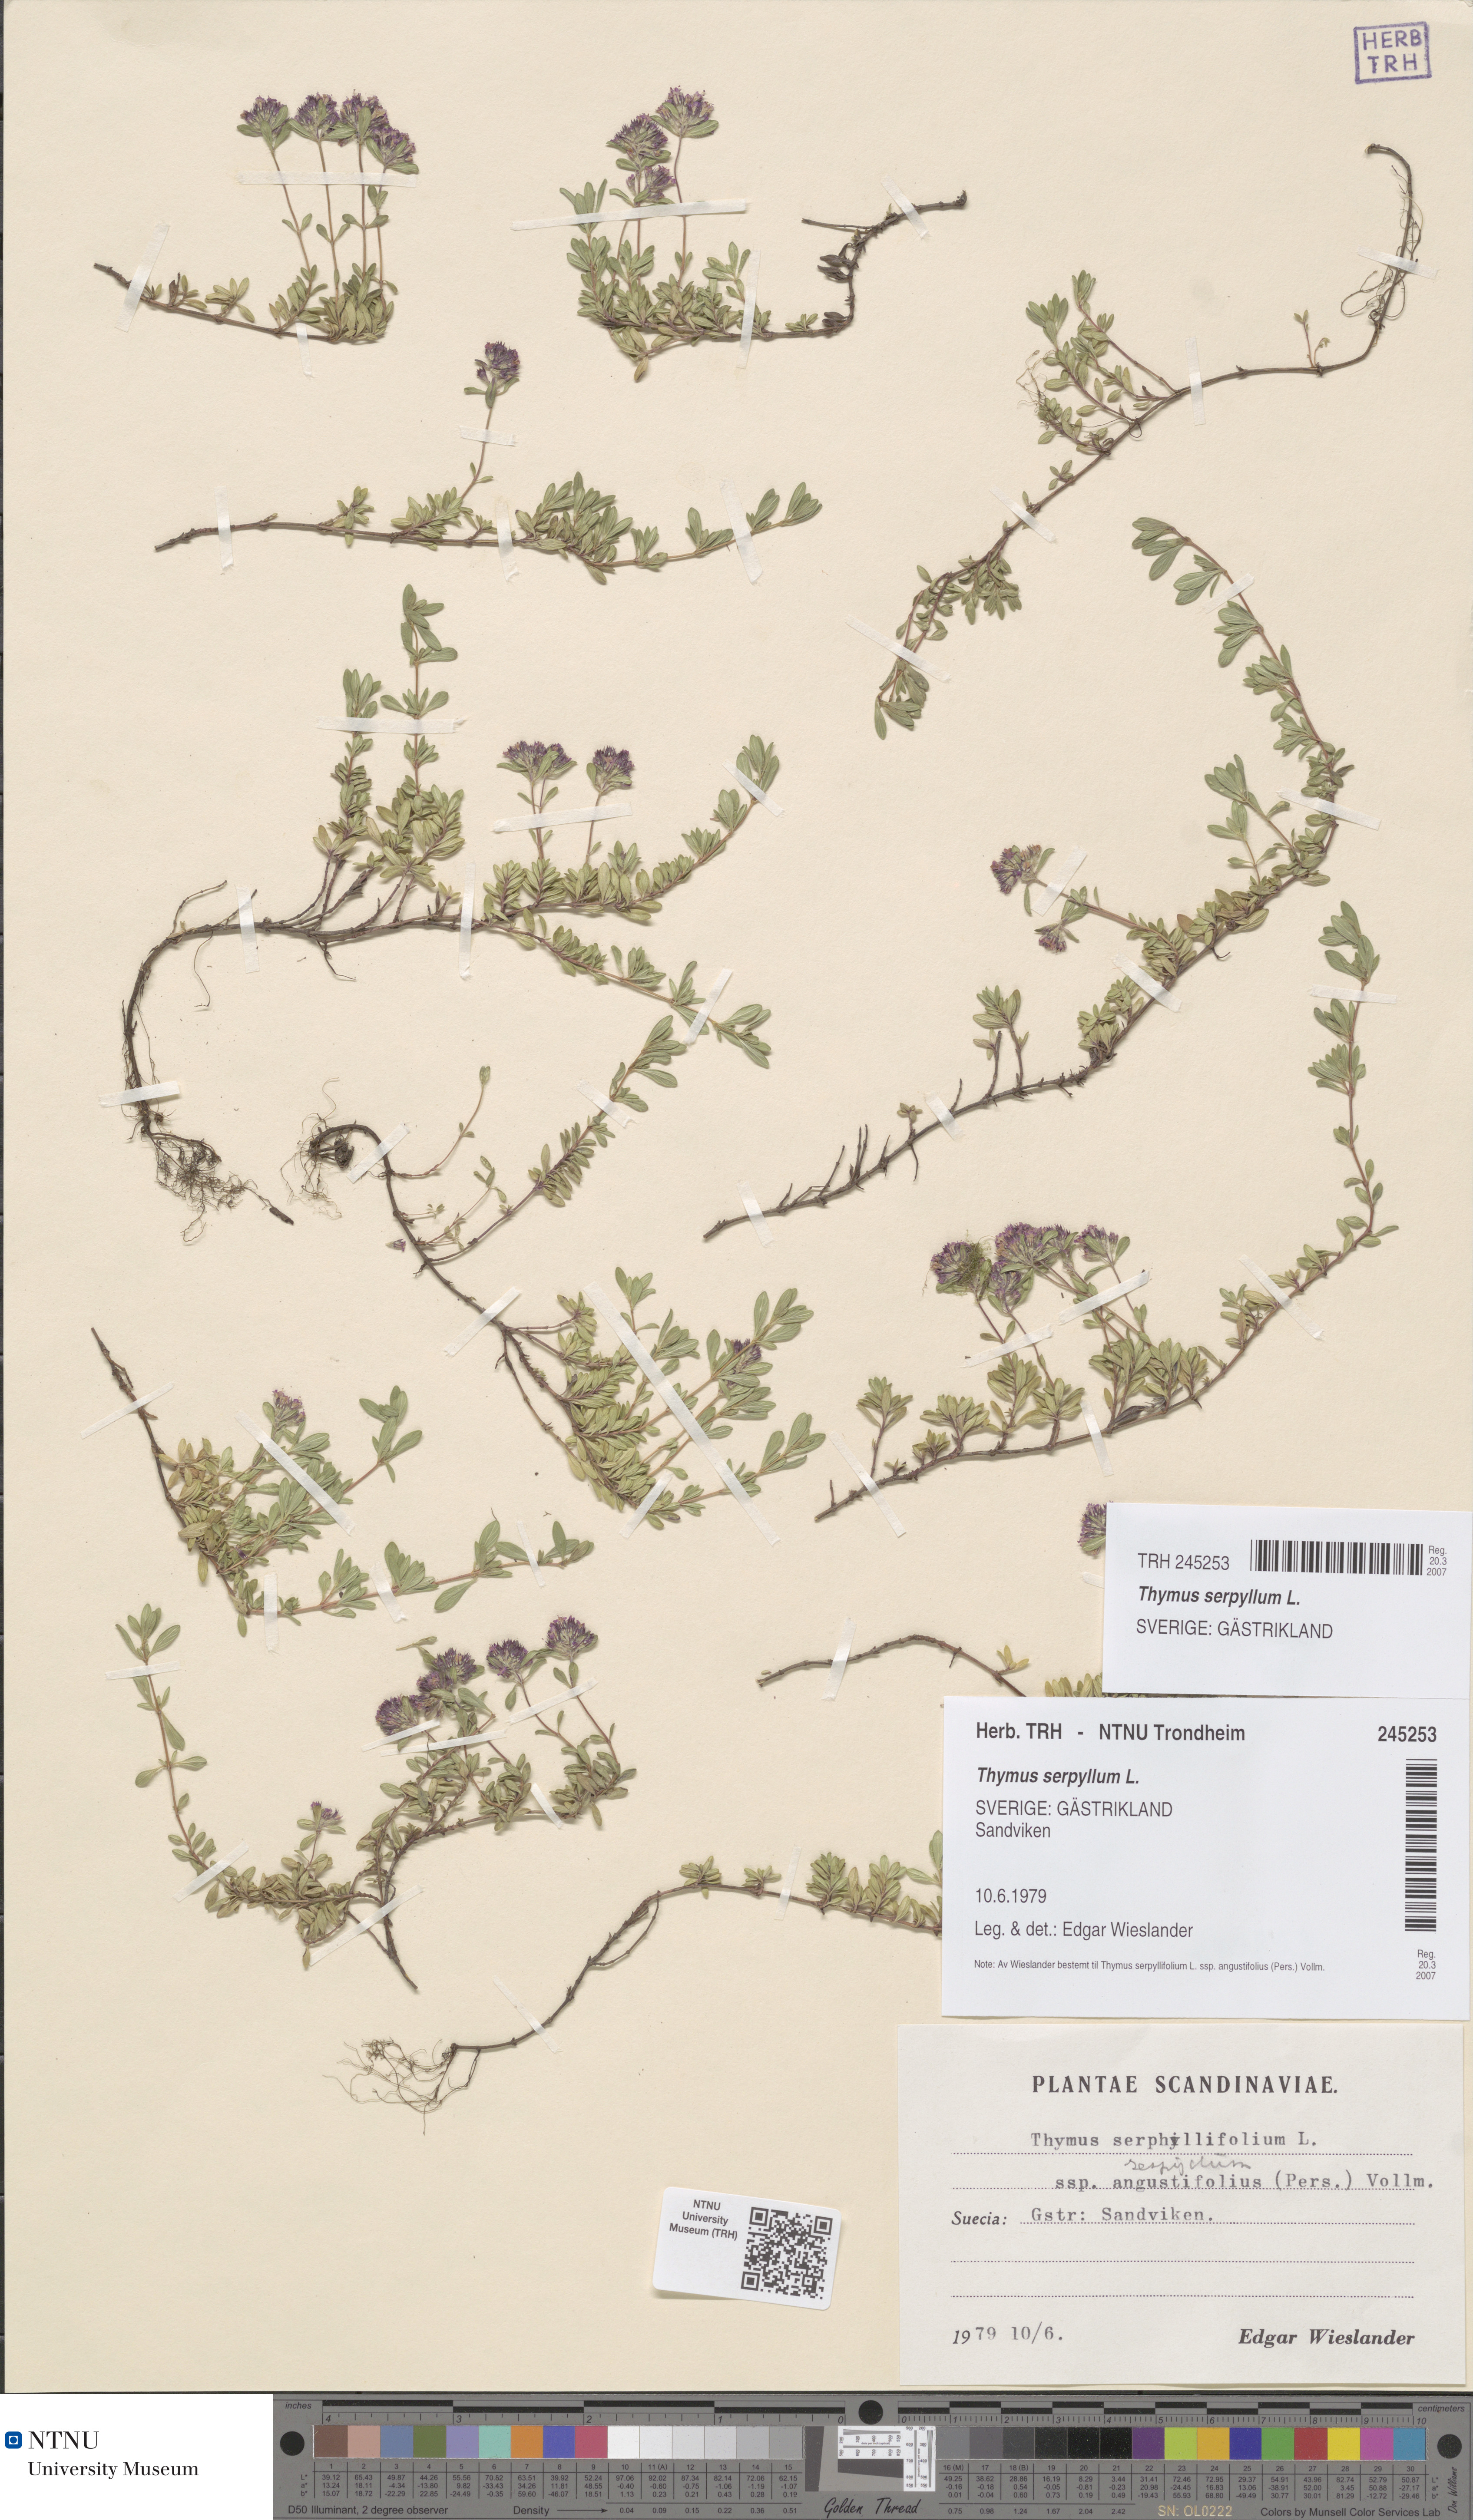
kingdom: Plantae
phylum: Tracheophyta
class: Magnoliopsida
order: Lamiales
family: Lamiaceae
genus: Thymus
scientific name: Thymus serpyllum
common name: Breckland thyme
